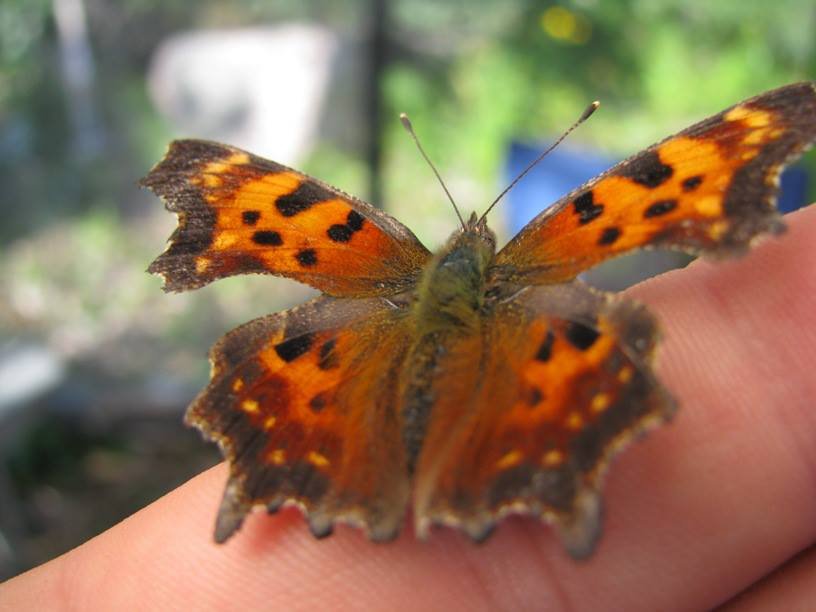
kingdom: Animalia
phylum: Arthropoda
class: Insecta
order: Lepidoptera
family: Nymphalidae
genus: Polygonia
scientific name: Polygonia faunus
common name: Green Comma
